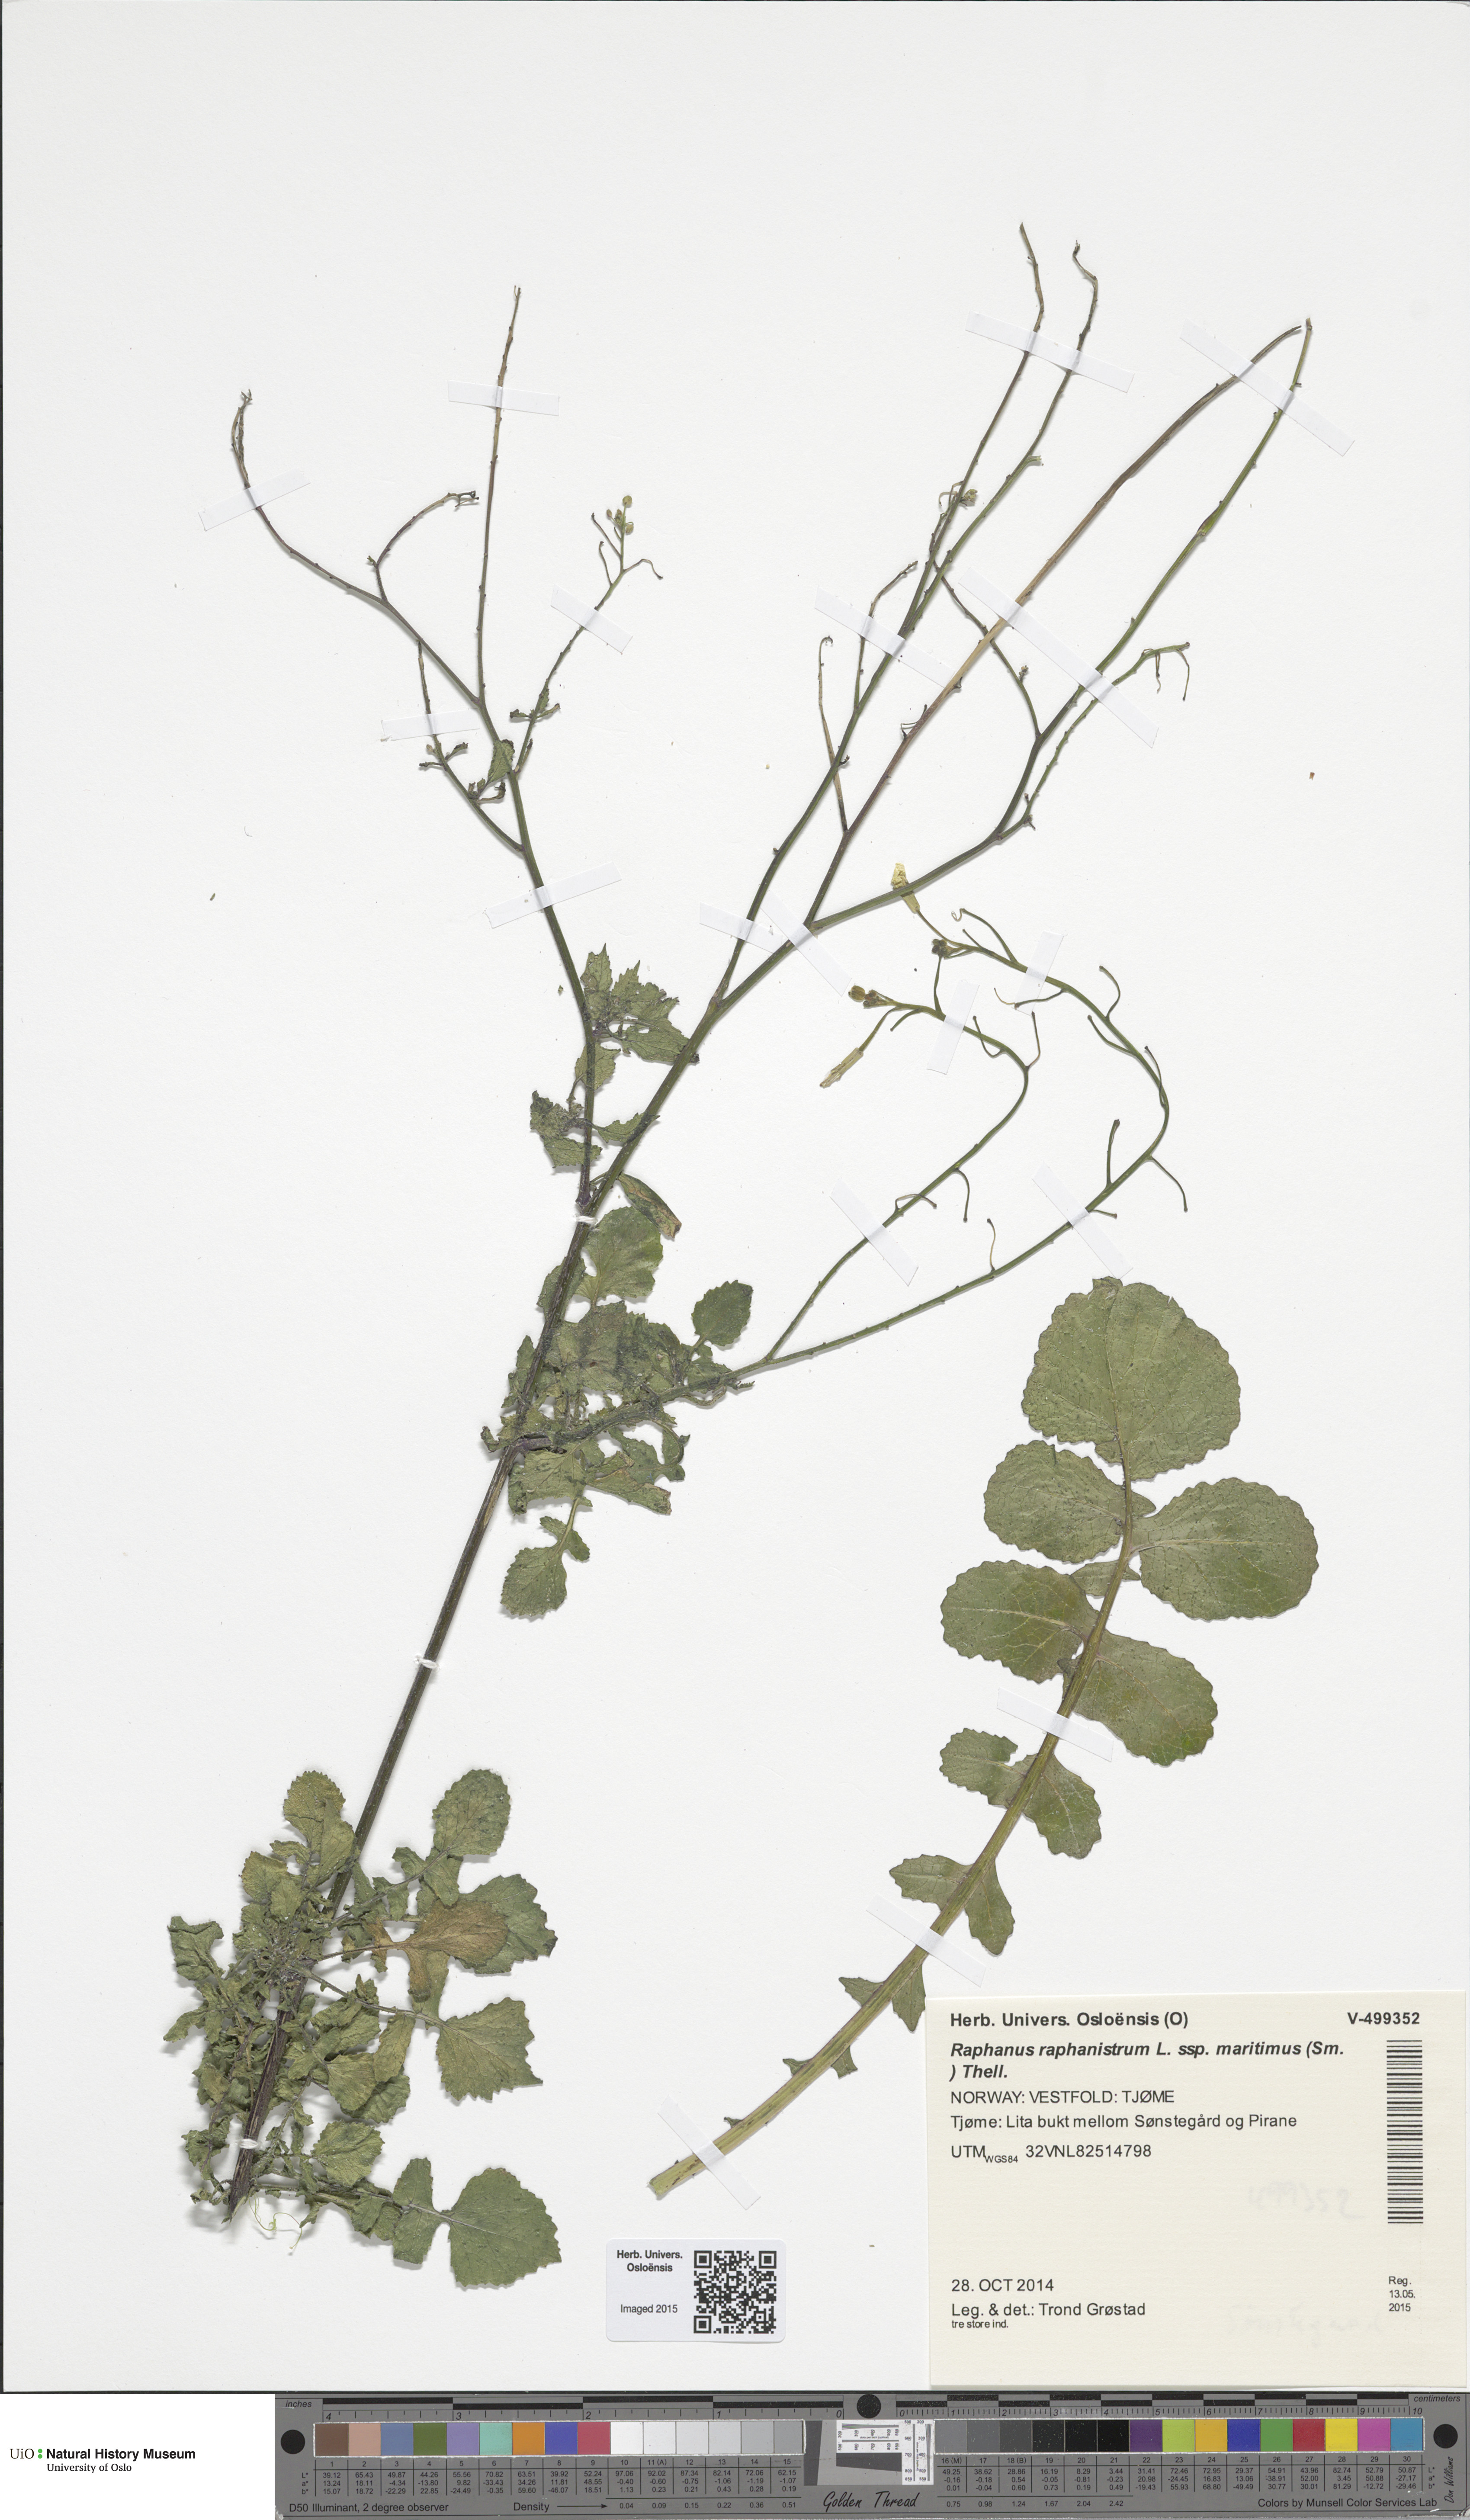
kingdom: Plantae
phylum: Tracheophyta
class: Magnoliopsida
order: Brassicales
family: Brassicaceae
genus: Raphanus
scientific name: Raphanus raphanistrum
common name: Wild radish
